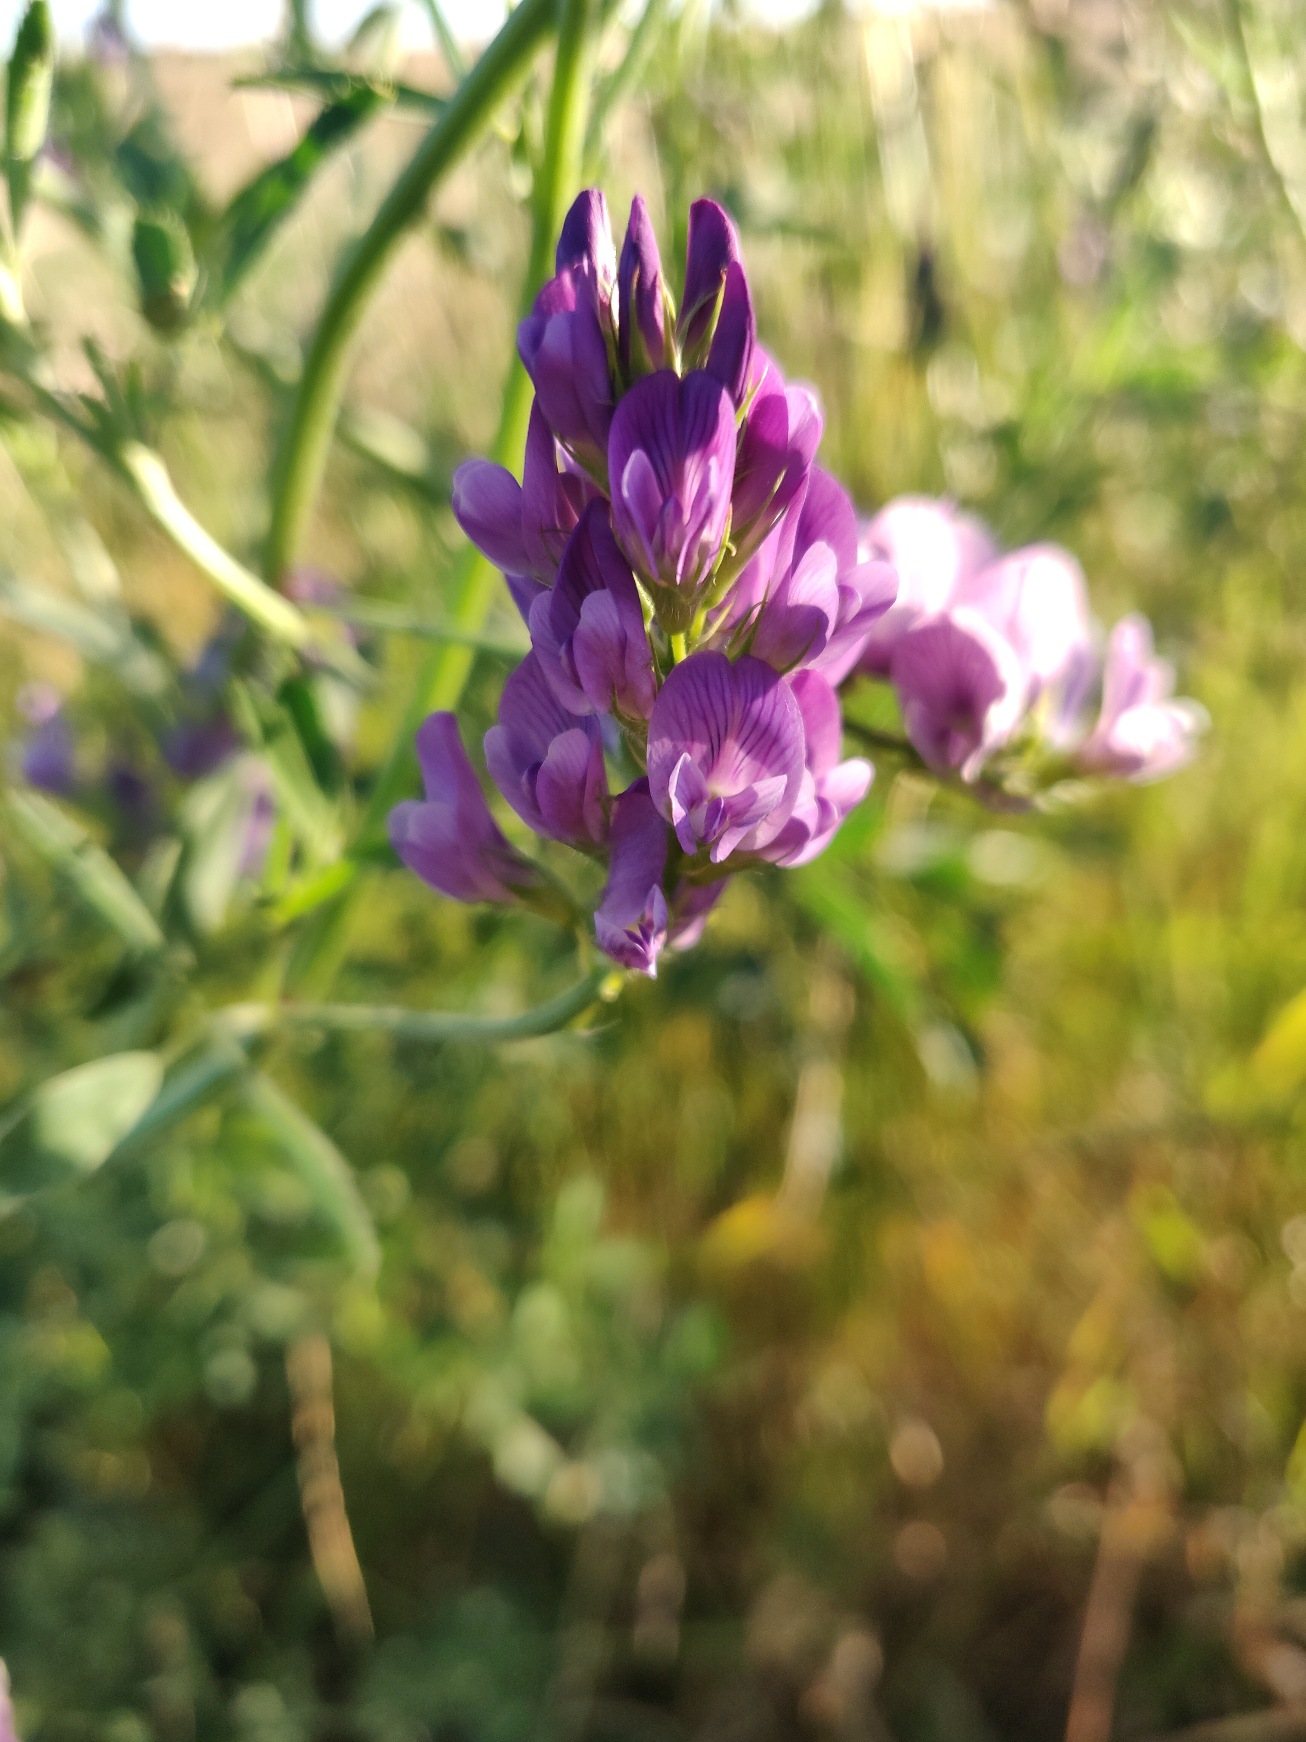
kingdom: Plantae
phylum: Tracheophyta
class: Magnoliopsida
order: Fabales
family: Fabaceae
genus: Medicago
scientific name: Medicago sativa
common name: Lucerne
